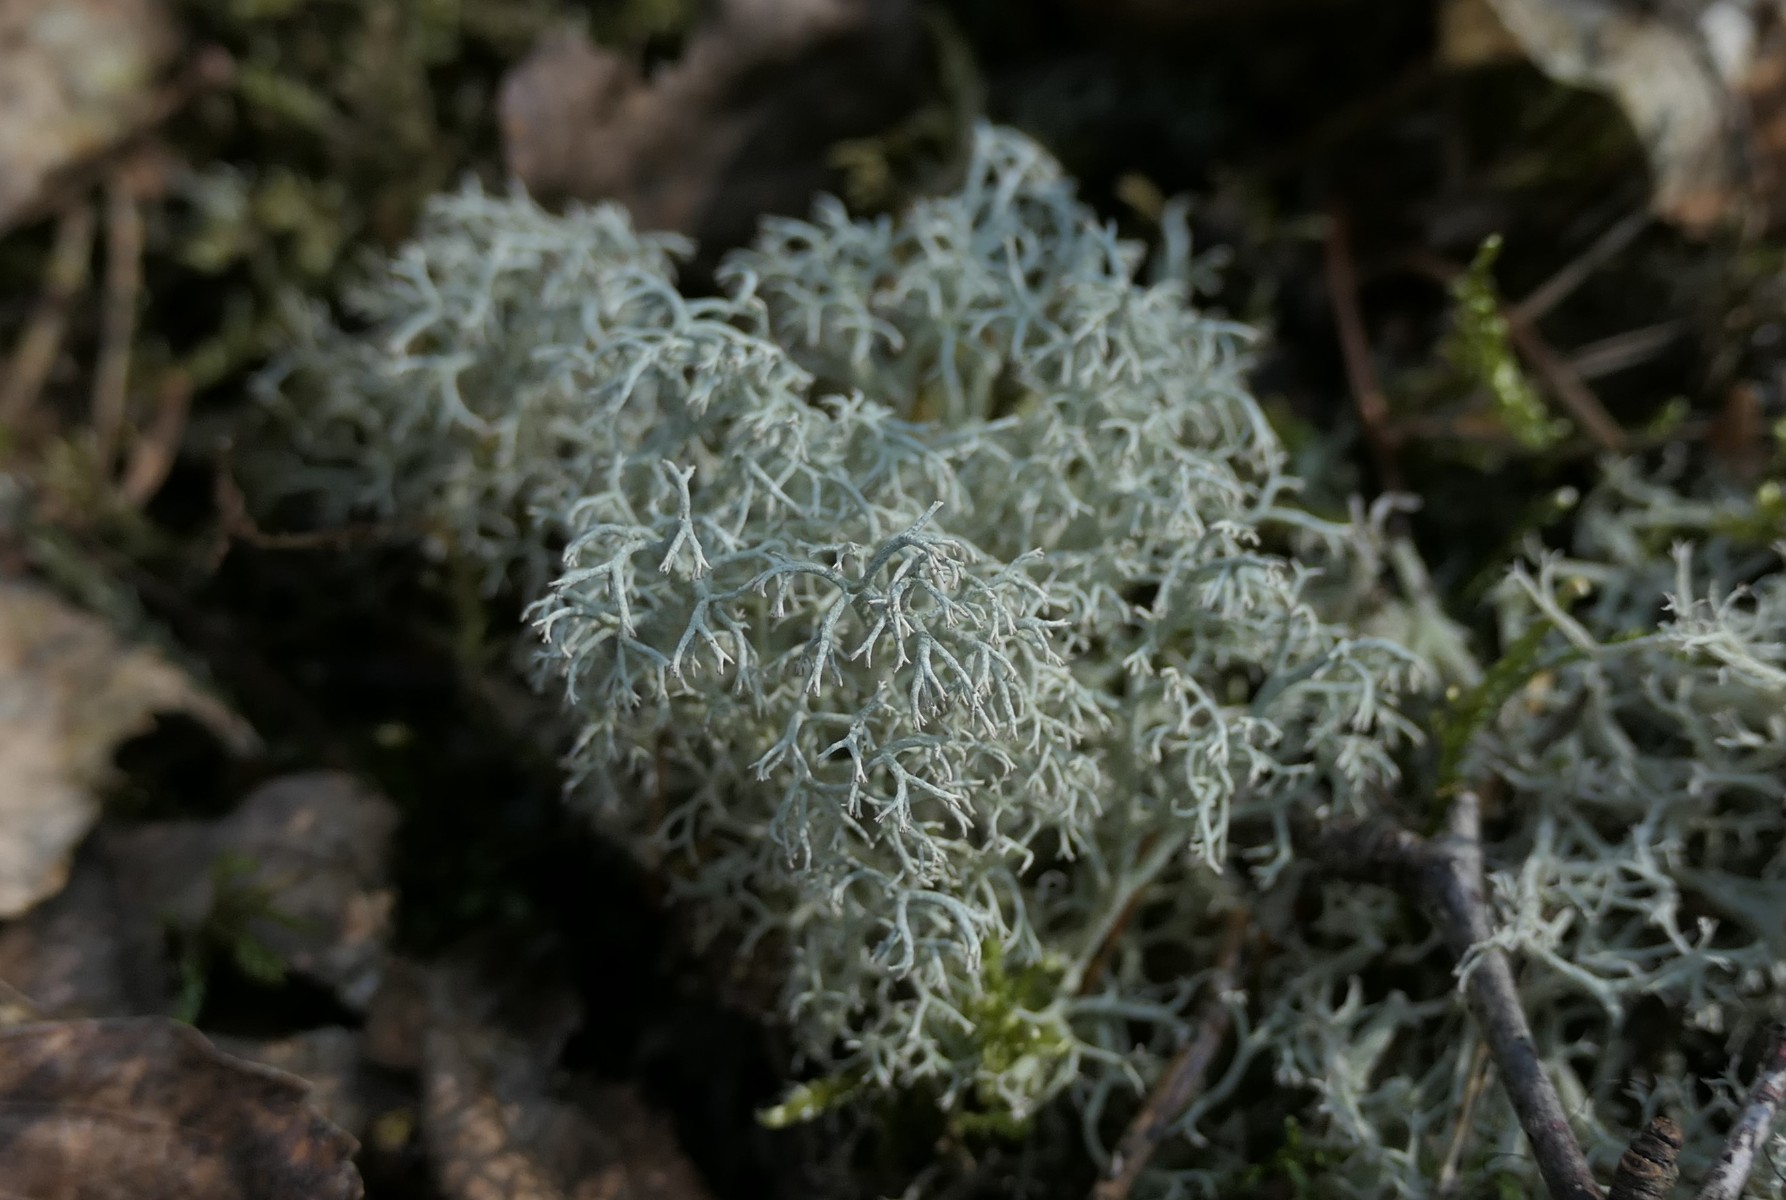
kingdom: Fungi
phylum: Ascomycota
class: Lecanoromycetes
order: Lecanorales
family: Cladoniaceae
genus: Cladonia
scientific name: Cladonia portentosa
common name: hede-rensdyrlav
